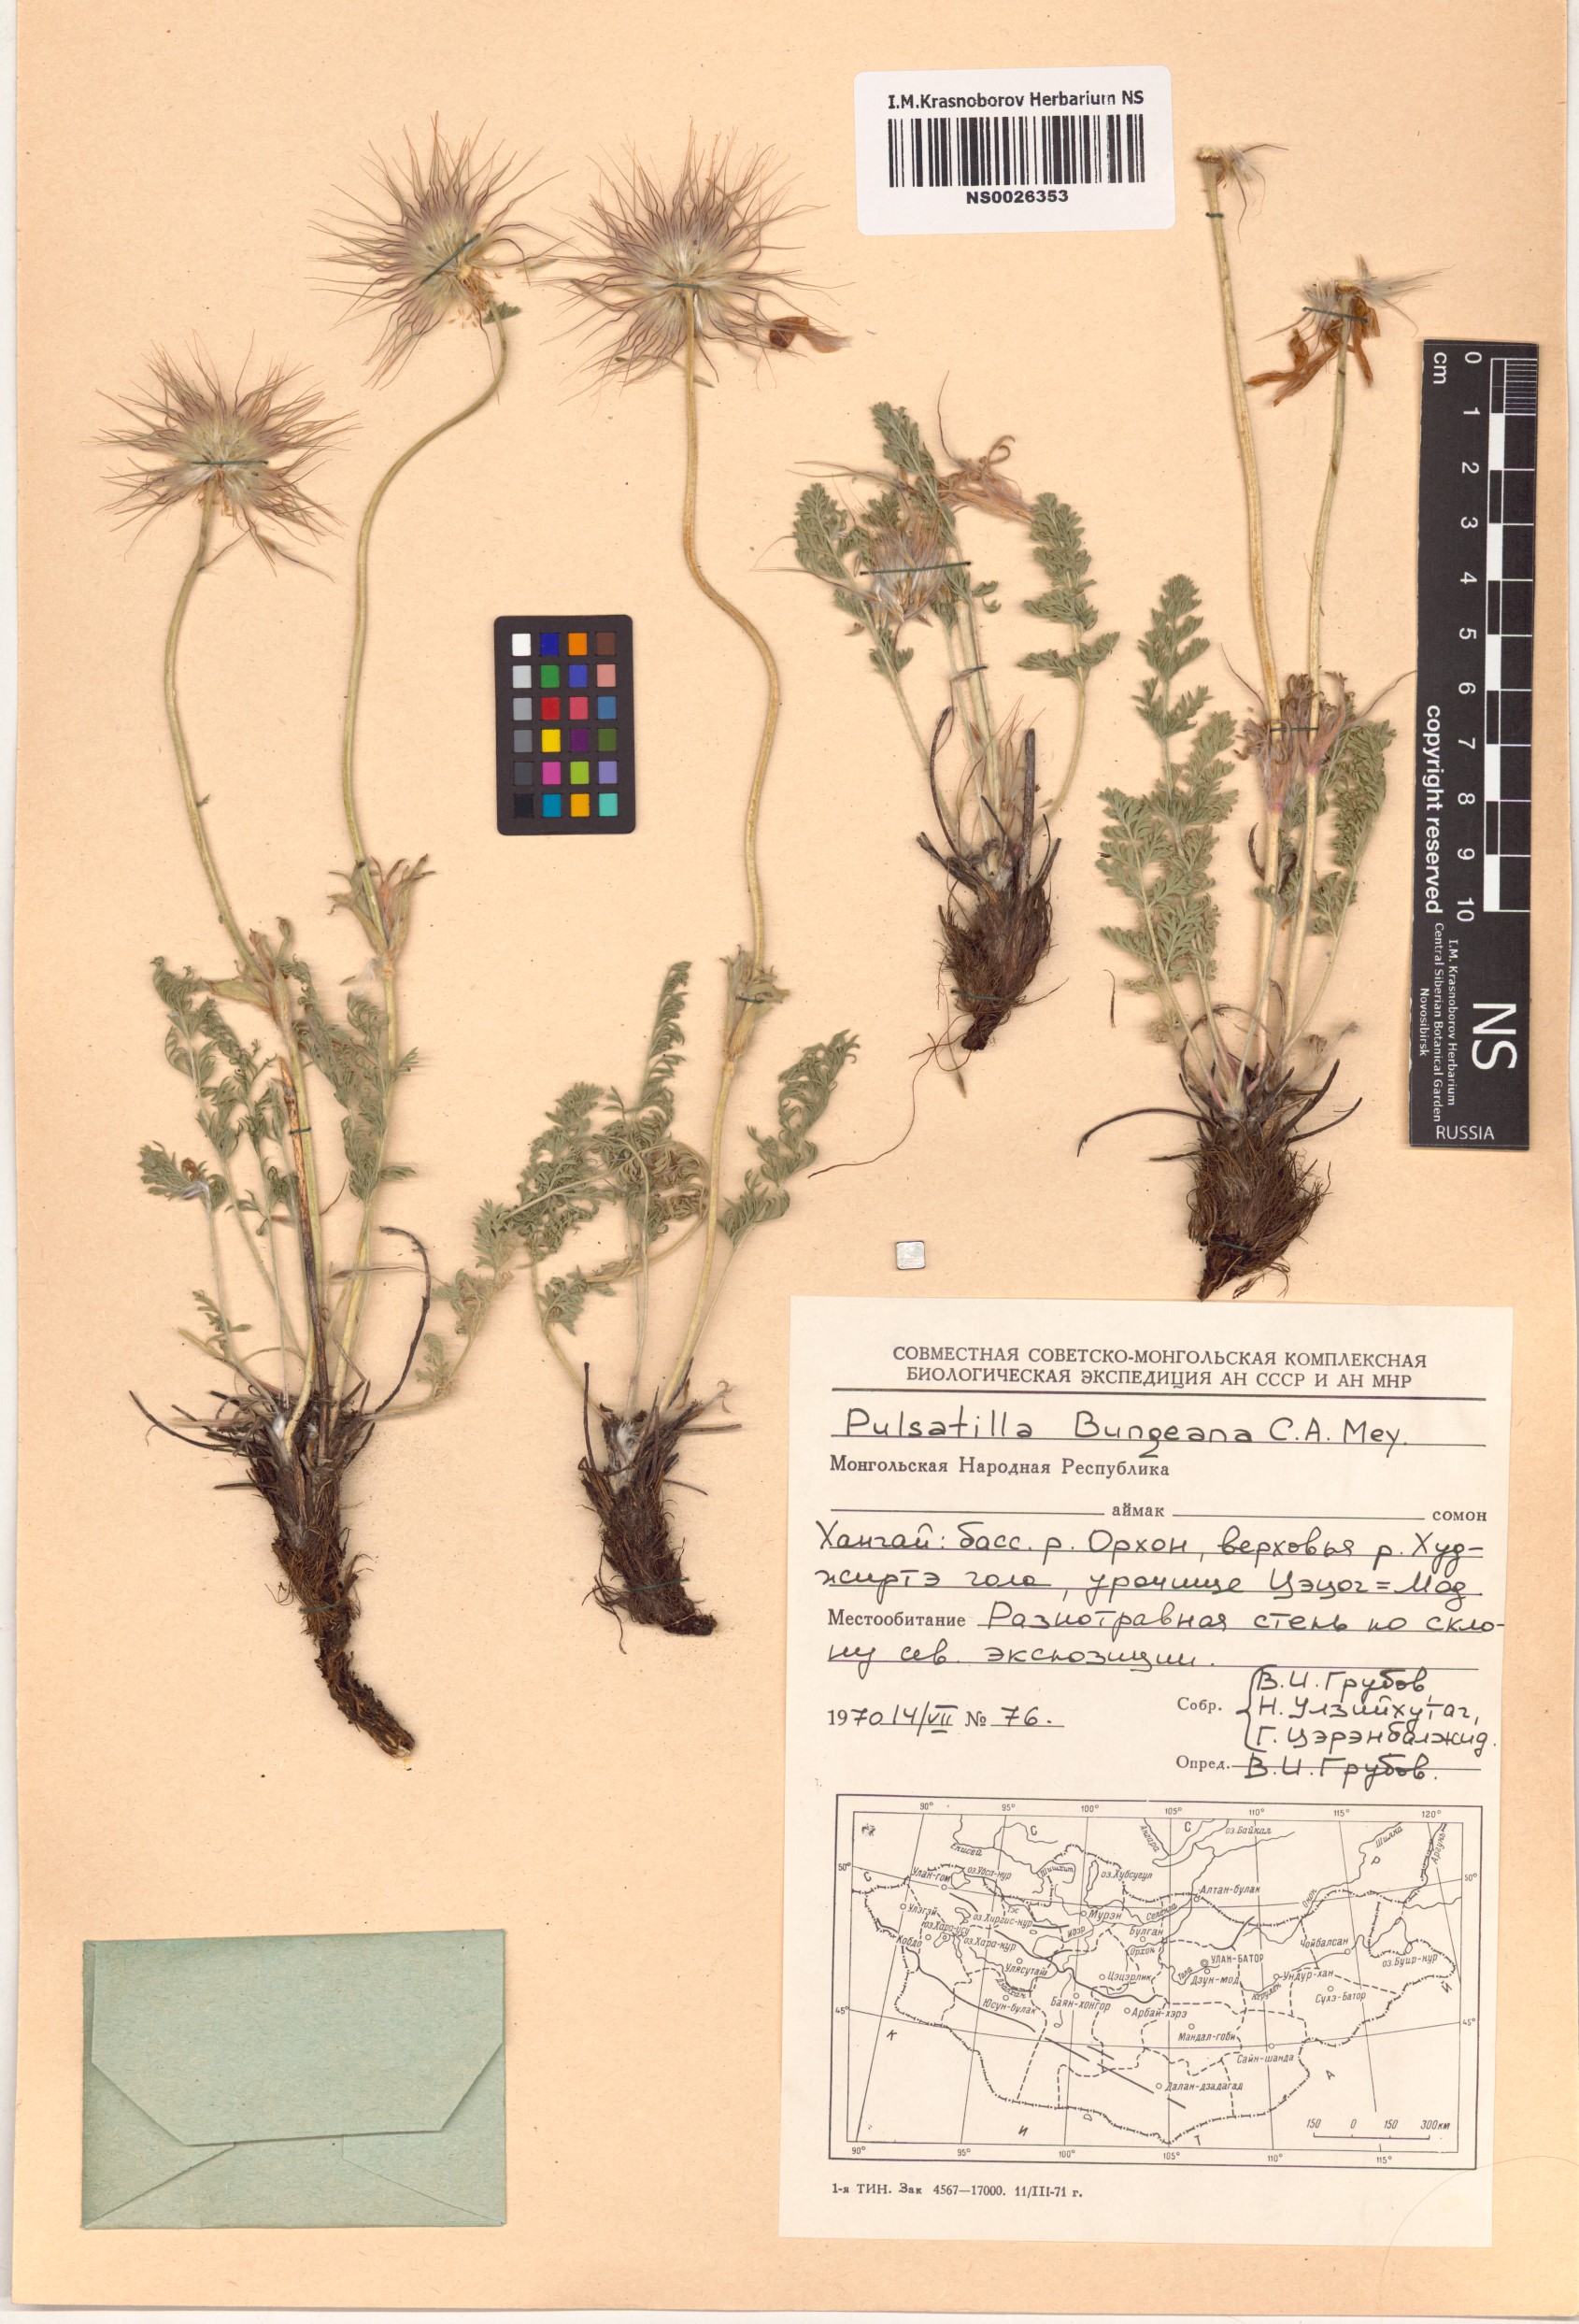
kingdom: Plantae
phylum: Tracheophyta
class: Magnoliopsida
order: Ranunculales
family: Ranunculaceae
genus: Pulsatilla
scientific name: Pulsatilla bungeana
